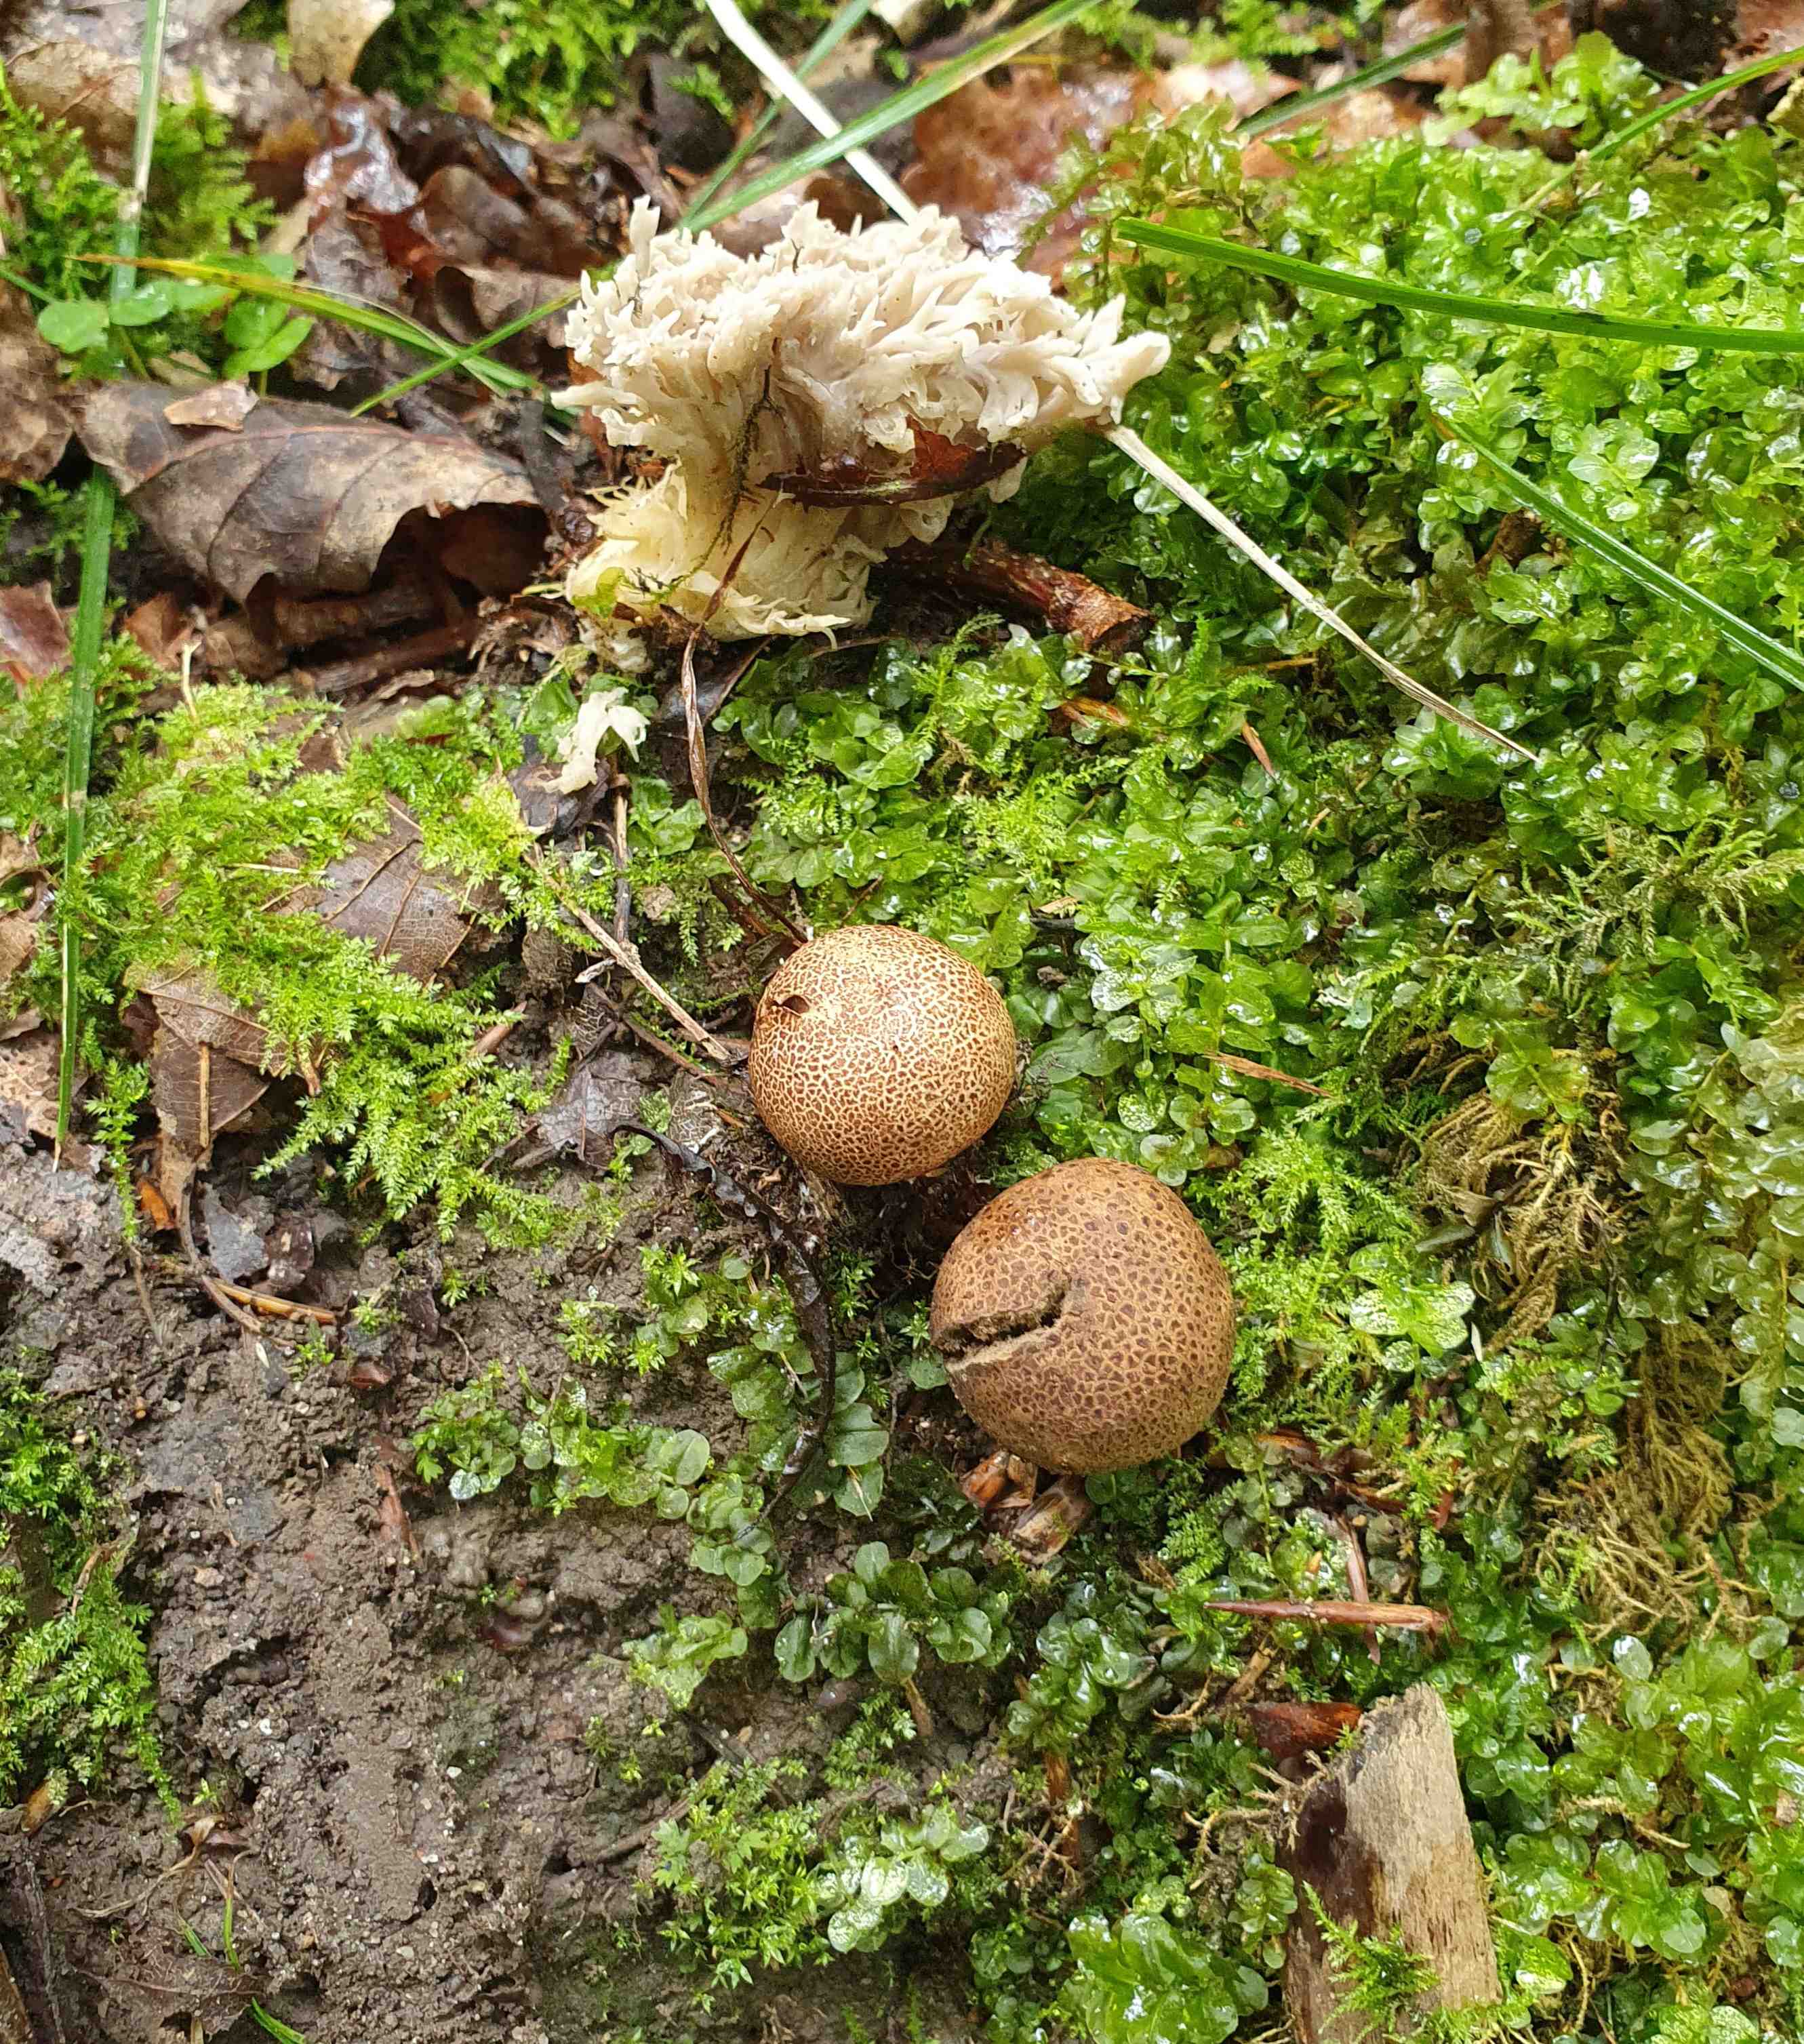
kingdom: Fungi
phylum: Basidiomycota
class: Agaricomycetes
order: Boletales
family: Sclerodermataceae
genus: Scleroderma
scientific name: Scleroderma areolatum
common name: plettet bruskbold
